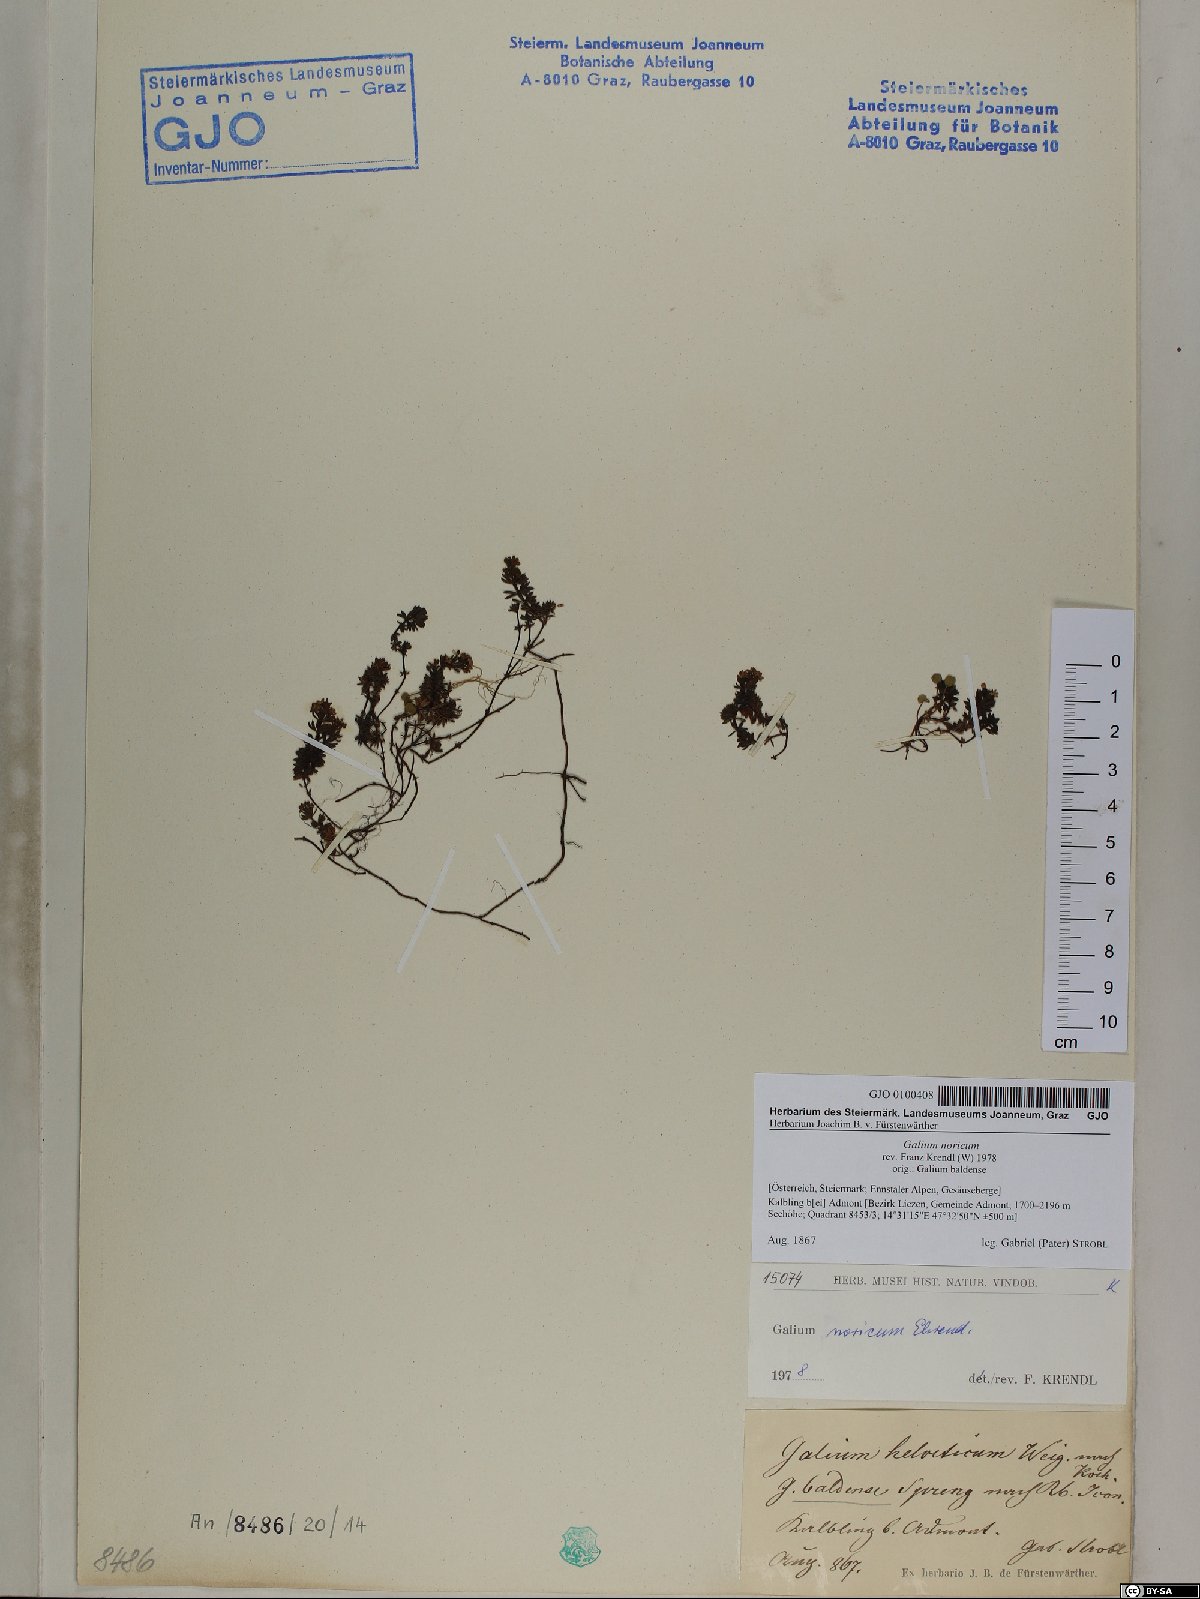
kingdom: Plantae
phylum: Tracheophyta
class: Magnoliopsida
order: Gentianales
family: Rubiaceae
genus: Galium
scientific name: Galium noricum
